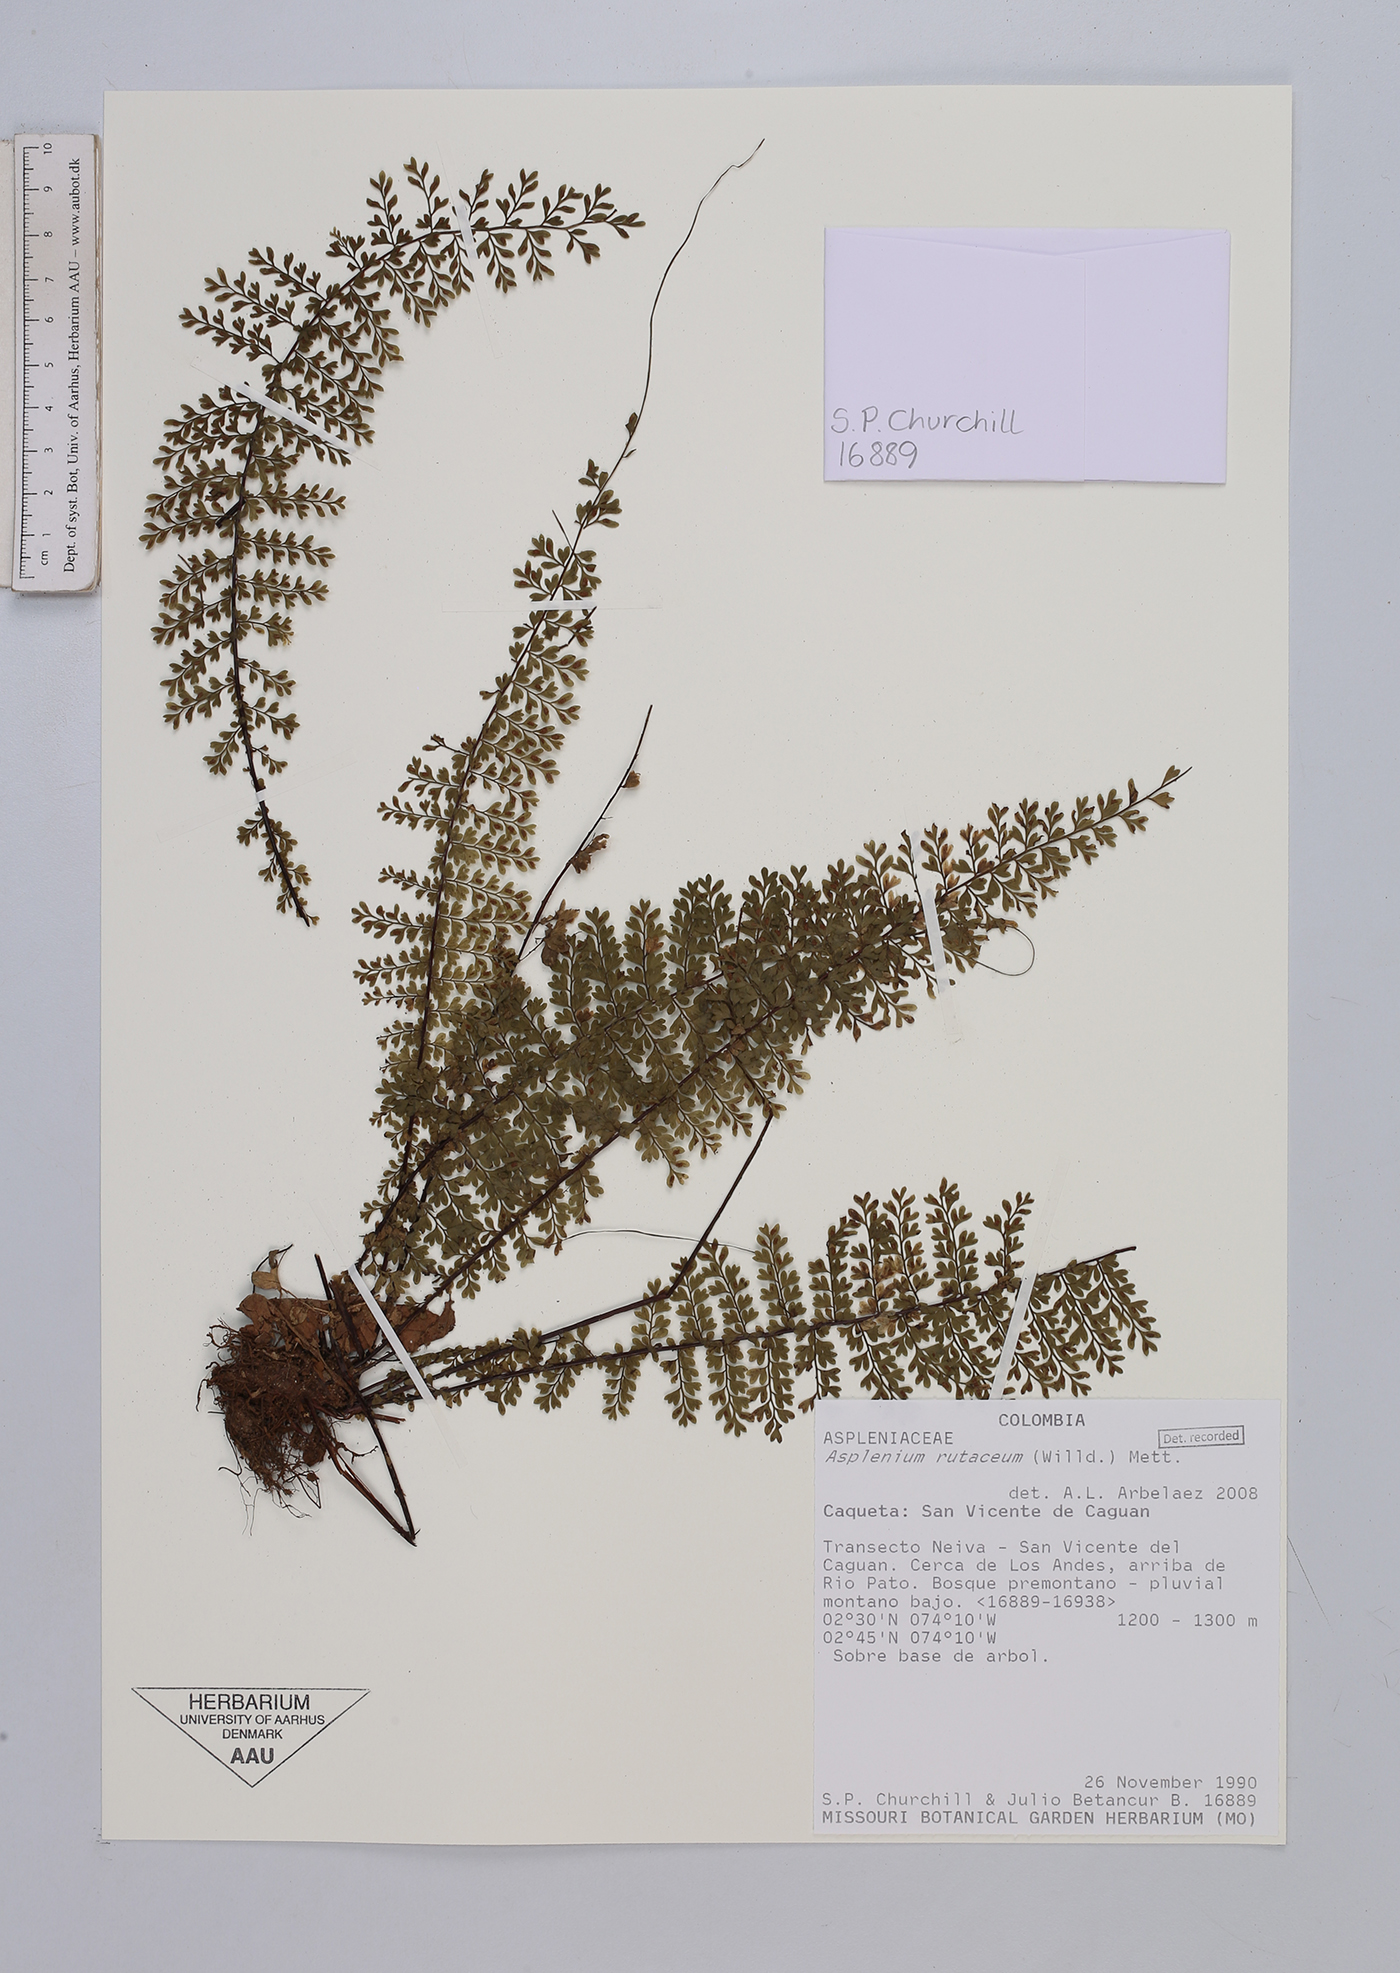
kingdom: Plantae
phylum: Tracheophyta
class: Polypodiopsida
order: Polypodiales
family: Aspleniaceae
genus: Asplenium
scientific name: Asplenium rutaceum
